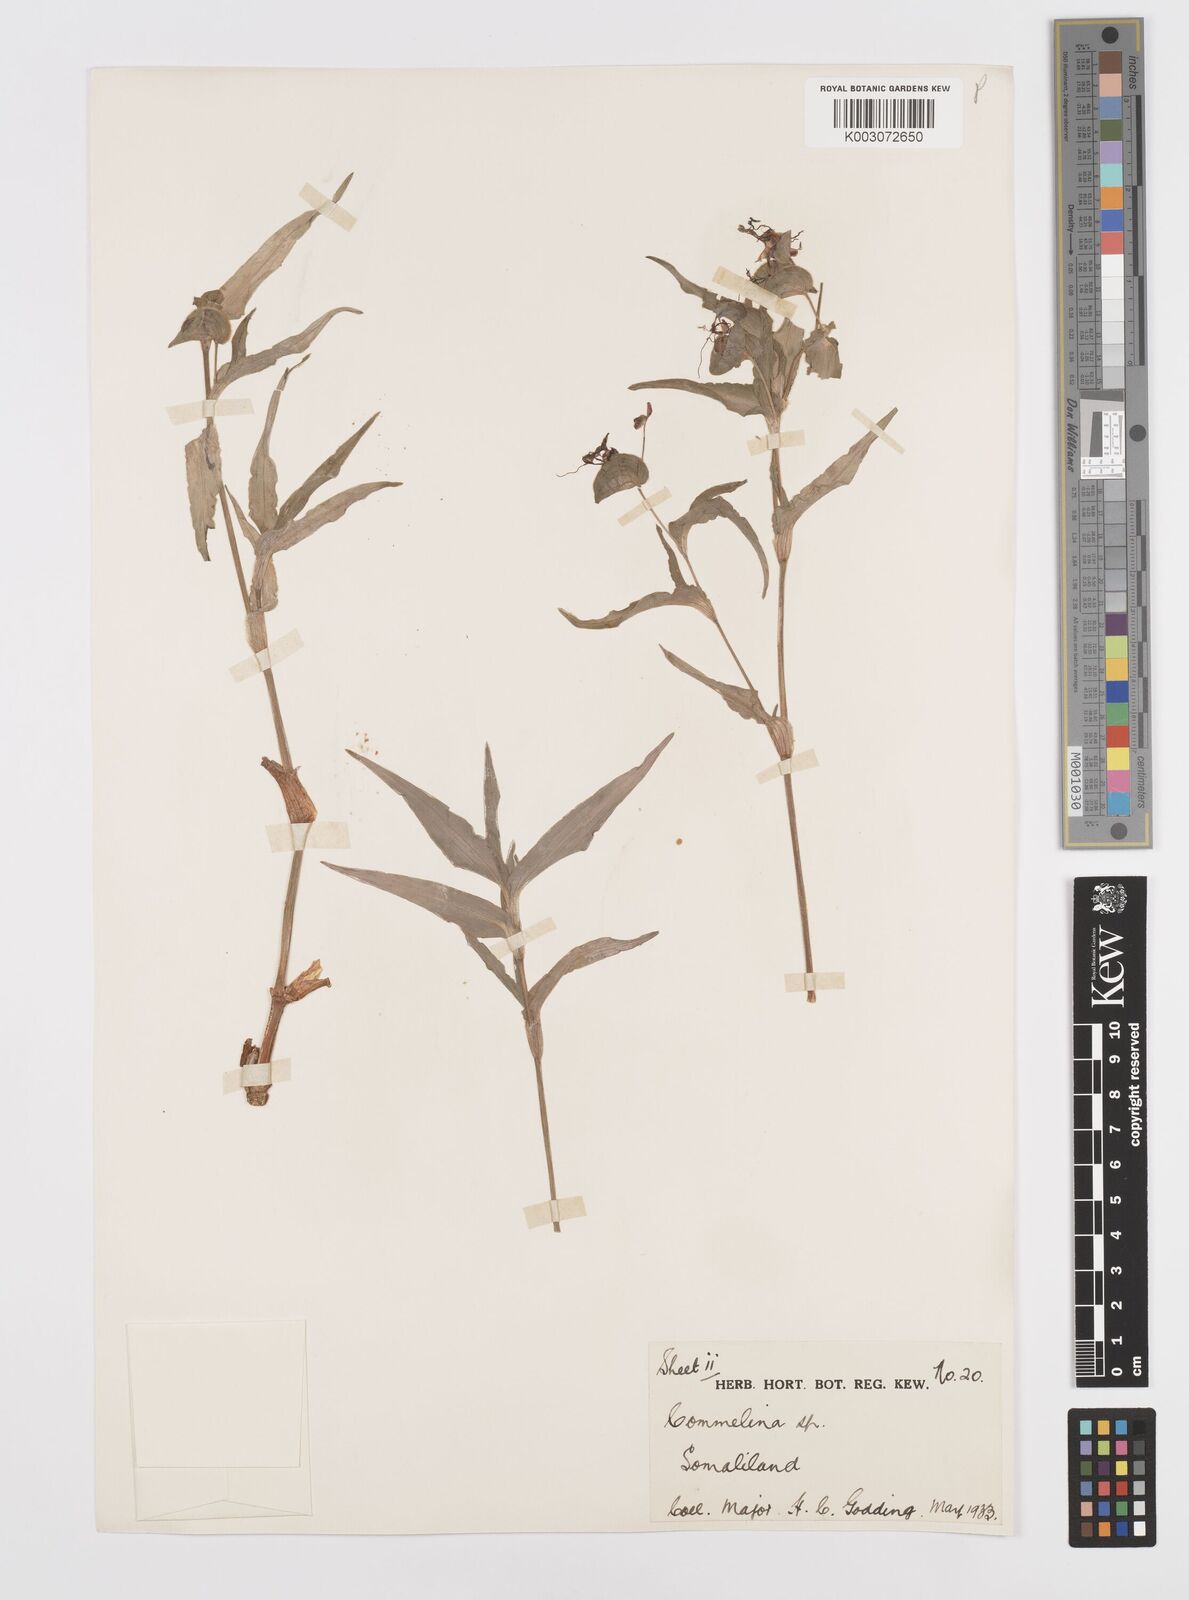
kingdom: Plantae
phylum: Tracheophyta
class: Liliopsida
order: Commelinales
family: Commelinaceae
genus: Commelina
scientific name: Commelina stefaniniana
